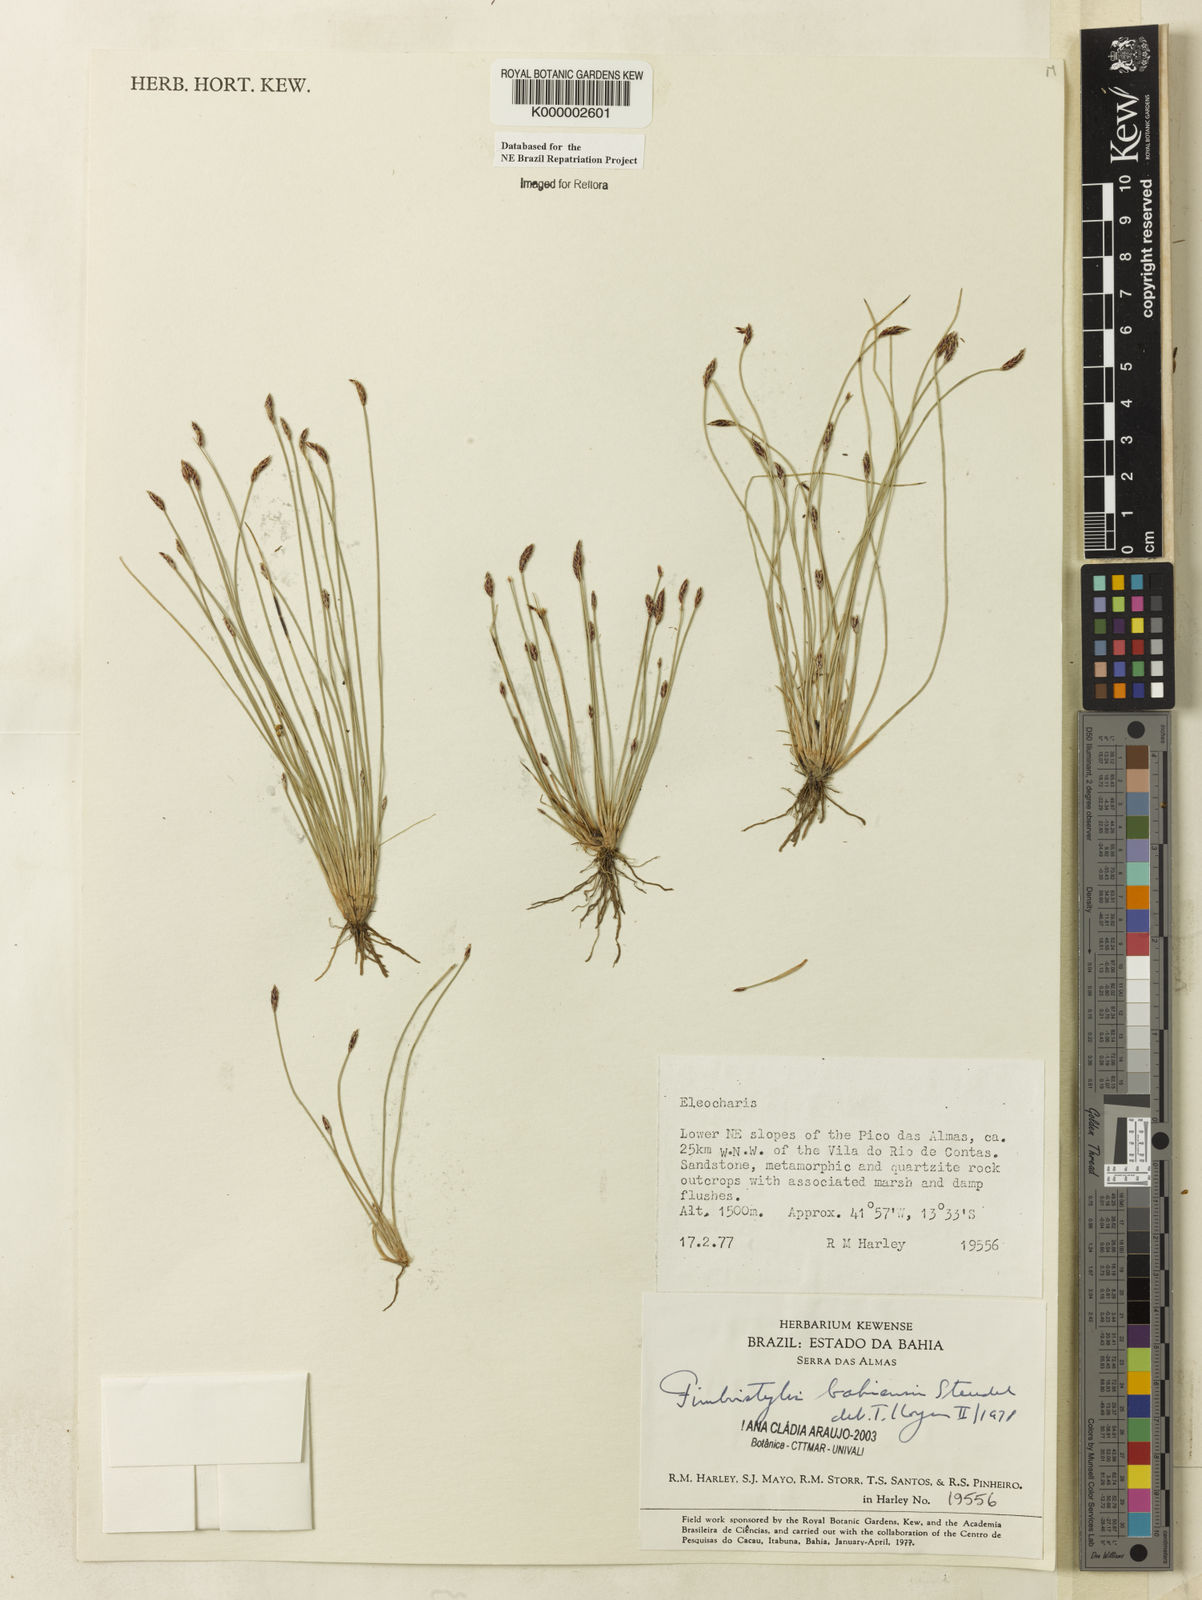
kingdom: Plantae
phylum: Tracheophyta
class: Liliopsida
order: Poales
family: Cyperaceae
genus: Fimbristylis
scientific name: Fimbristylis bahiensis
